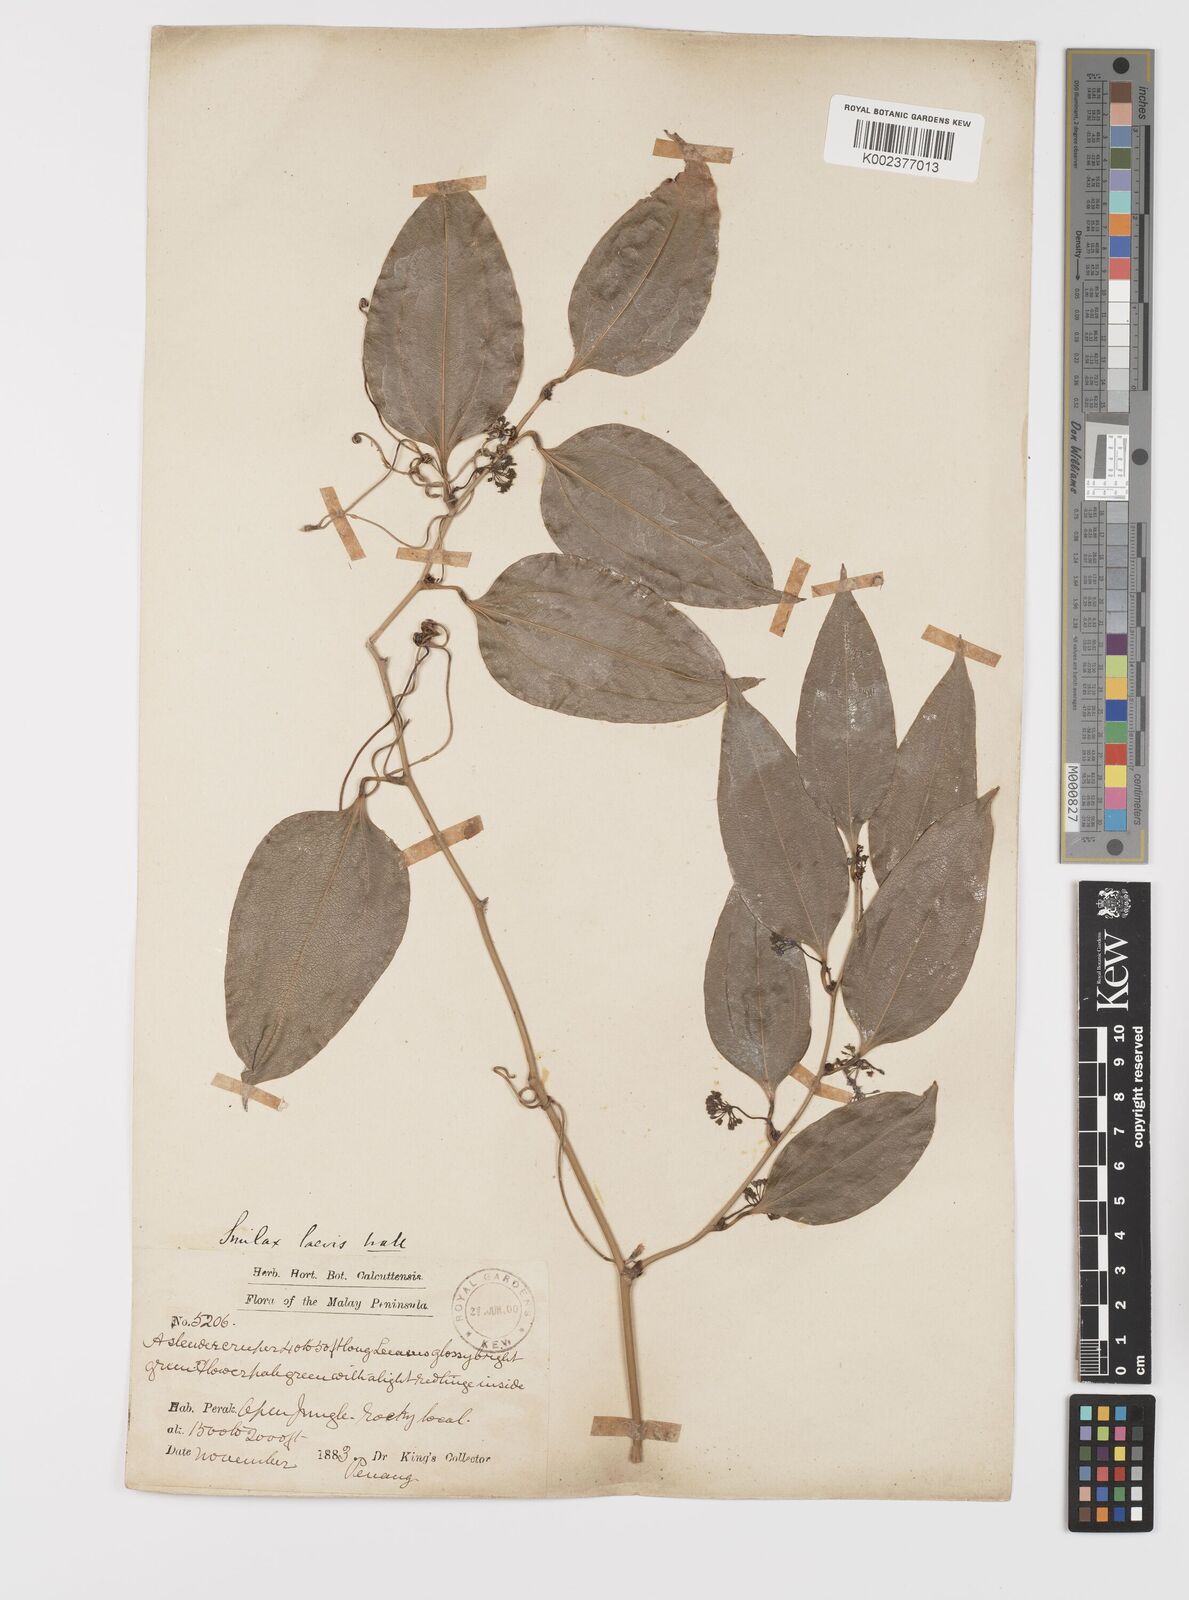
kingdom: Plantae
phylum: Tracheophyta
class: Liliopsida
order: Liliales
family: Smilacaceae
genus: Smilax
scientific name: Smilax laevis
